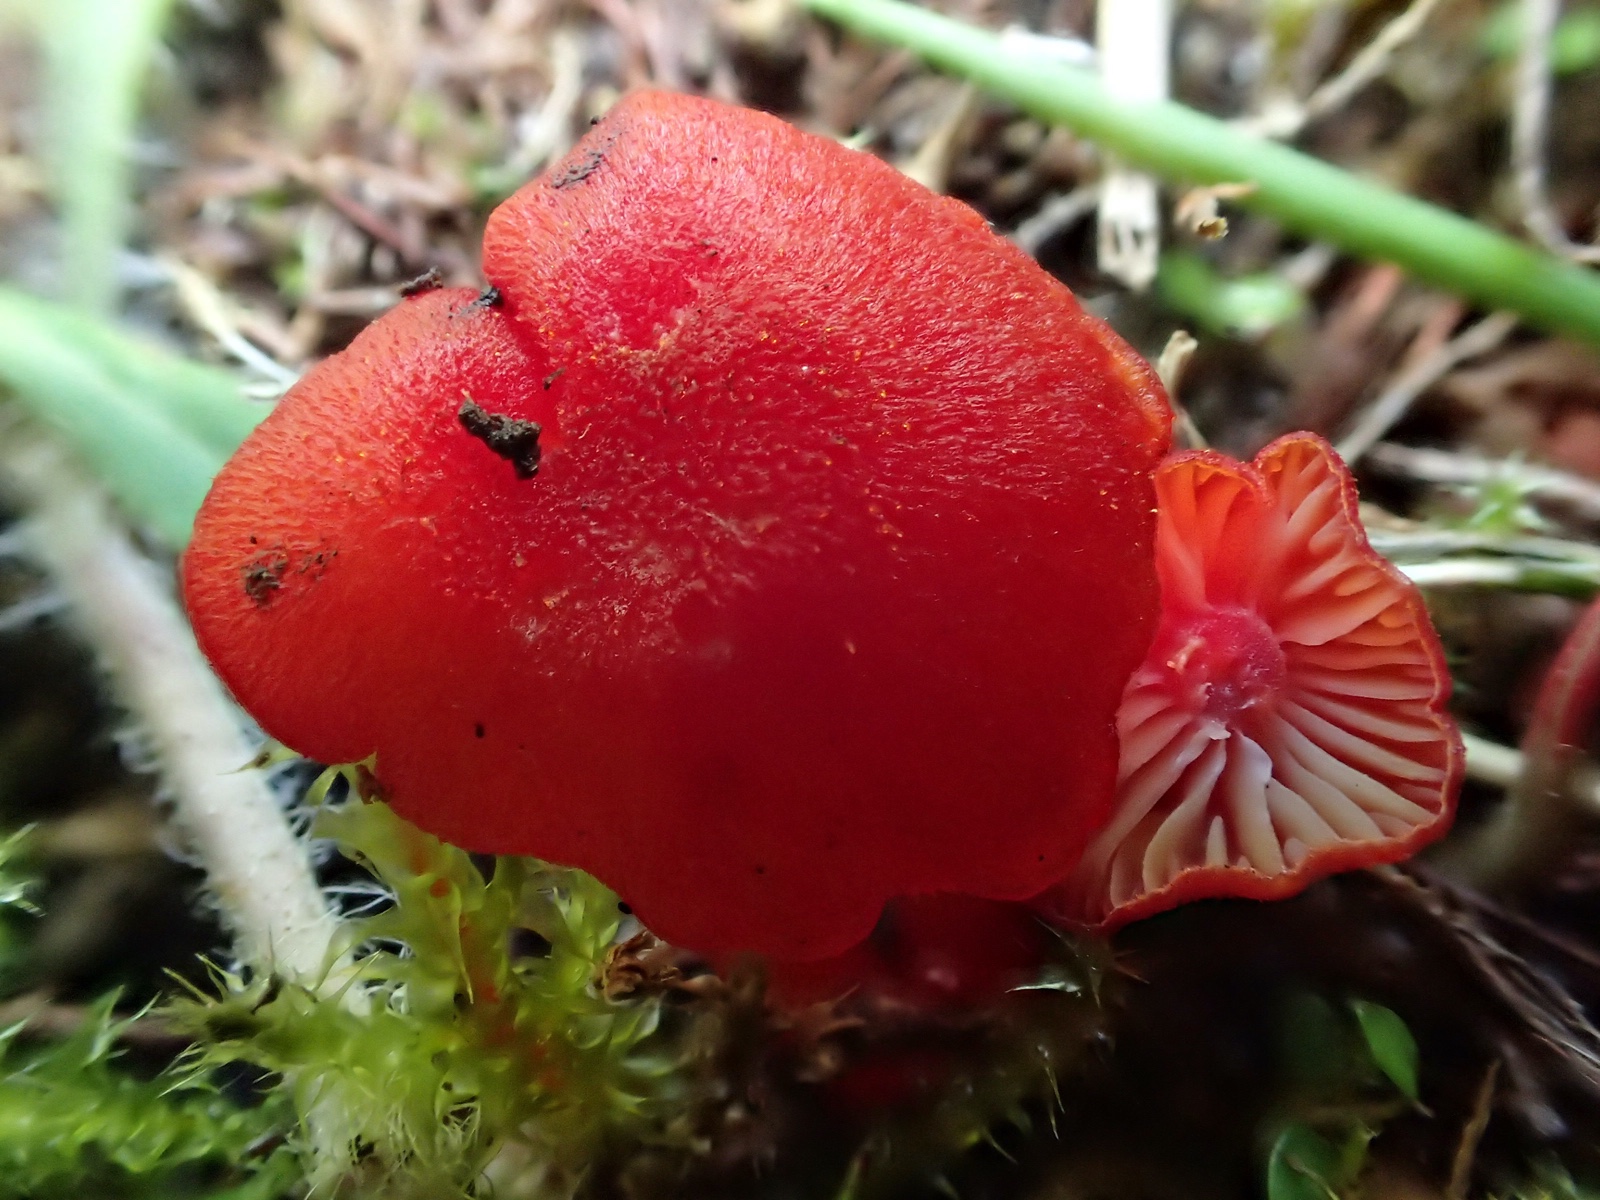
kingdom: Fungi
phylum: Basidiomycota
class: Agaricomycetes
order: Agaricales
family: Hygrophoraceae
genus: Hygrocybe
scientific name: Hygrocybe helobia
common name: hvidløgs-vokshat
